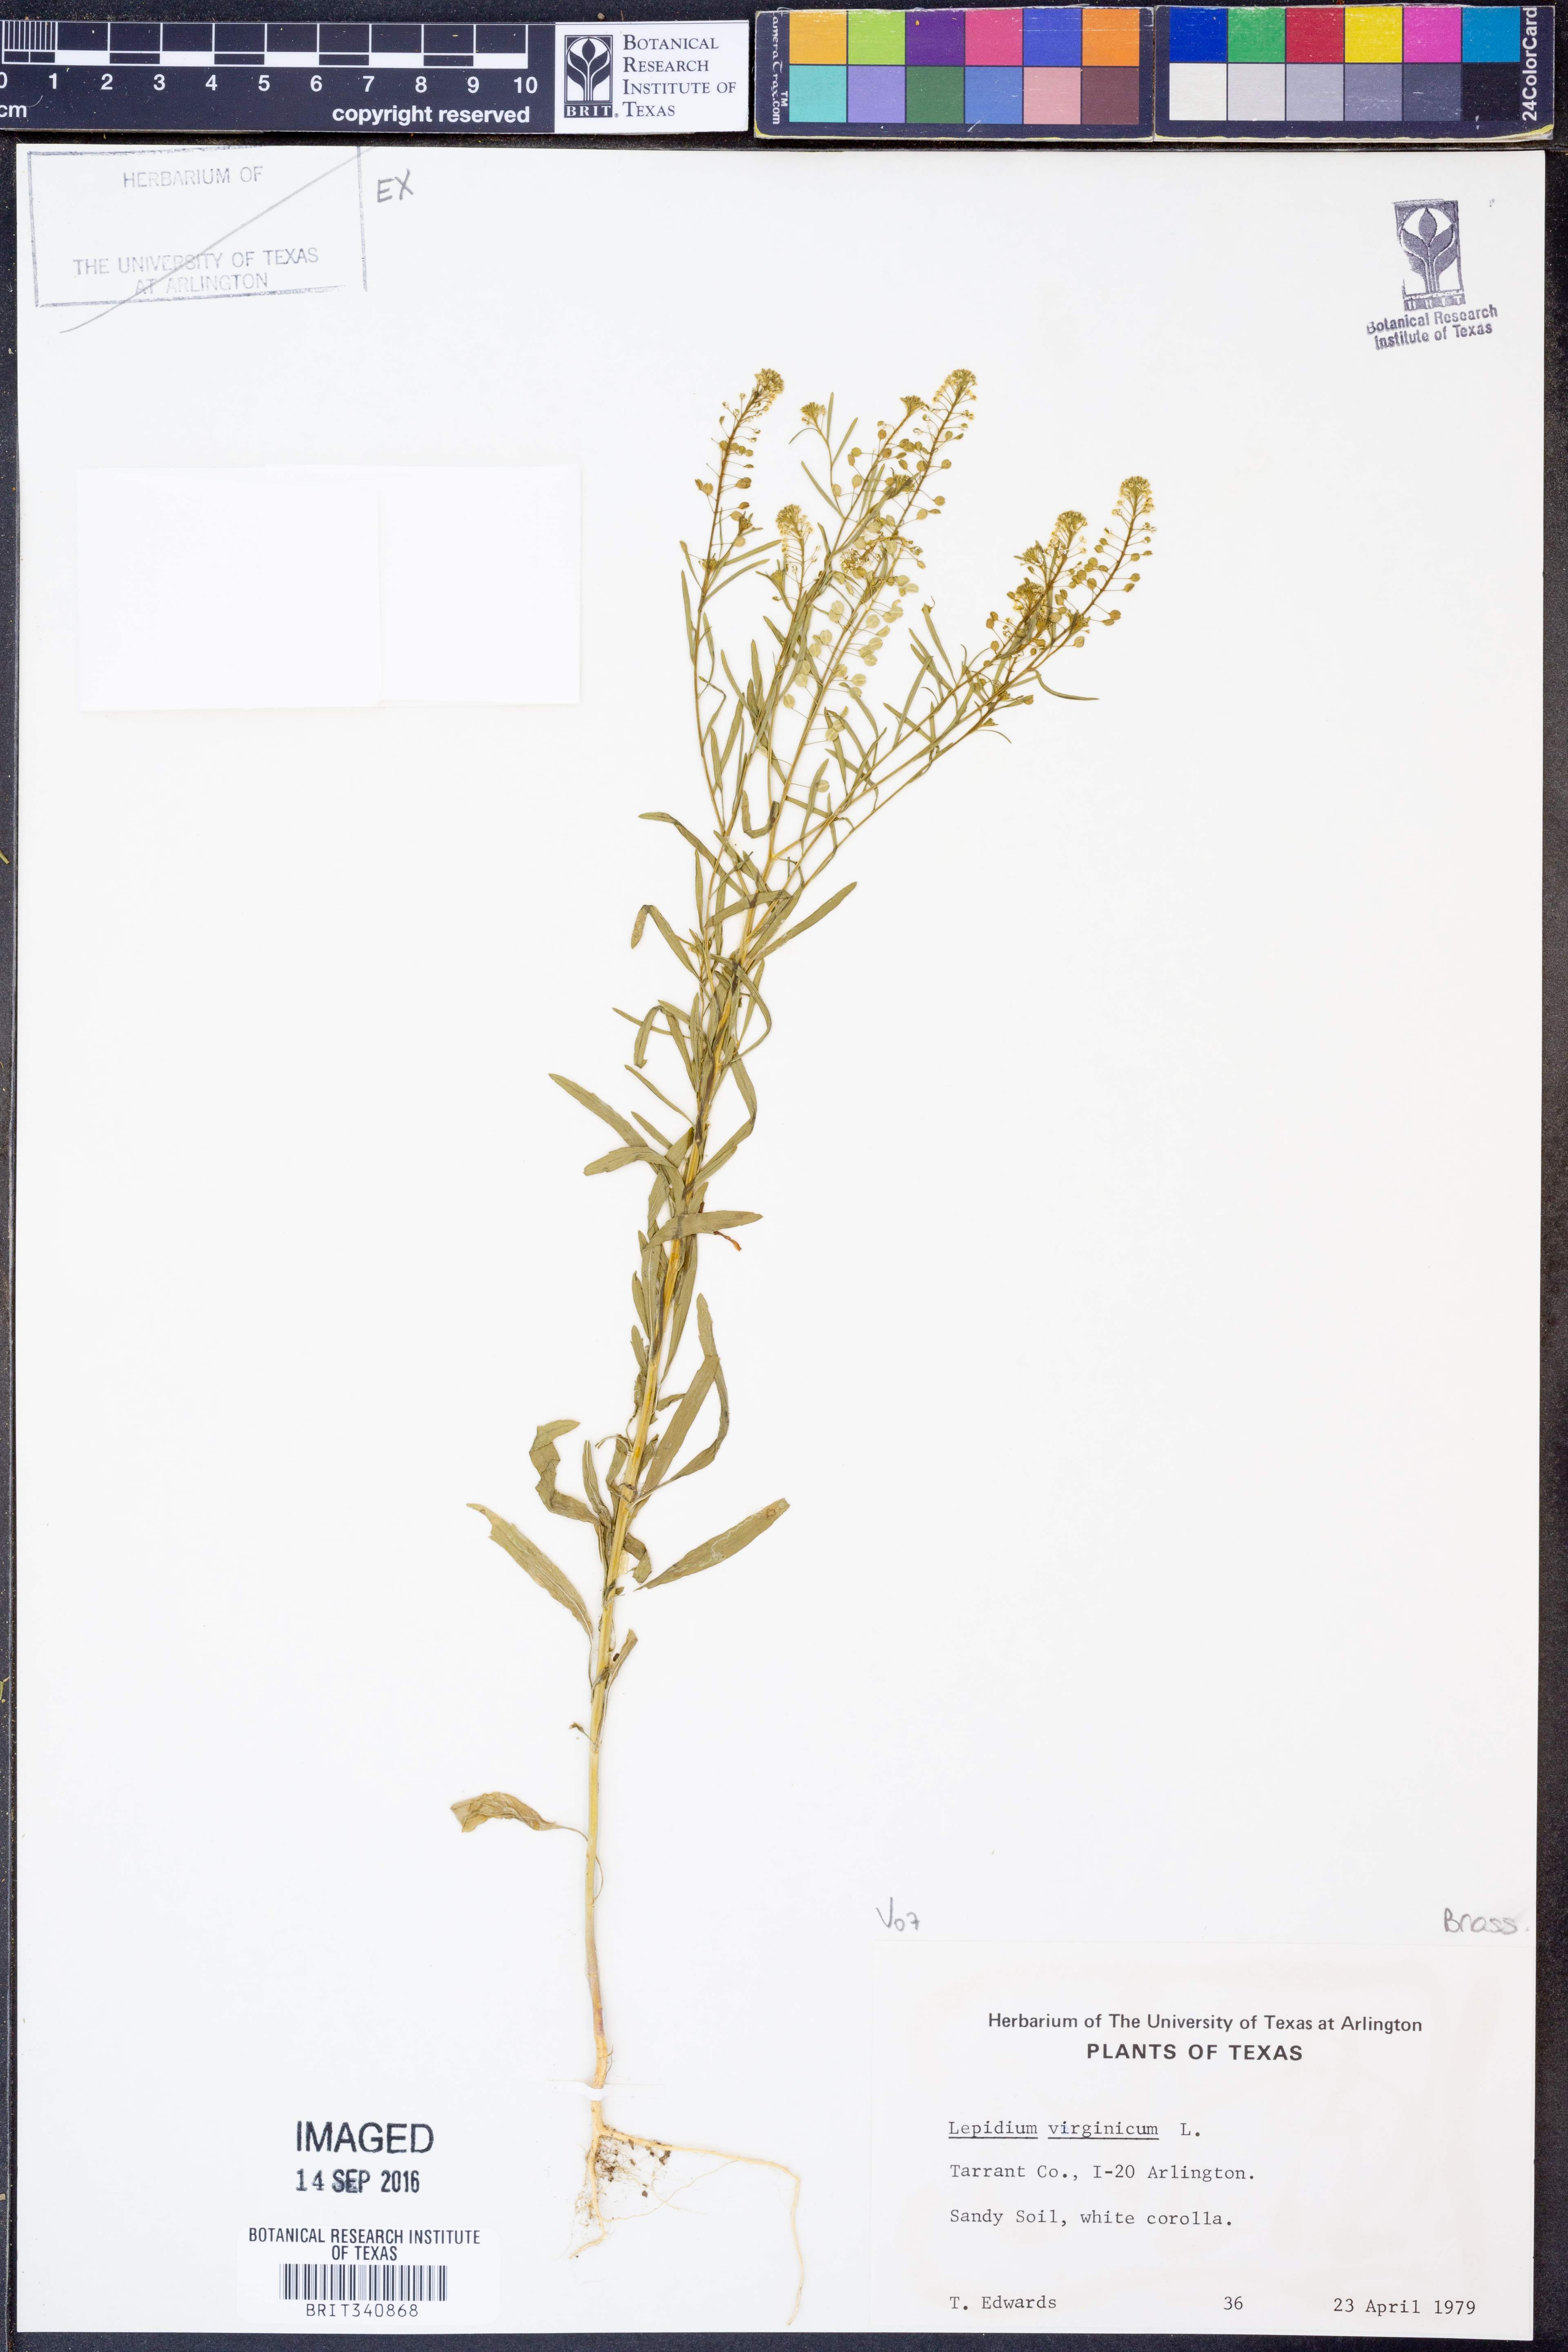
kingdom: Plantae
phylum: Tracheophyta
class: Magnoliopsida
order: Brassicales
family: Brassicaceae
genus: Lepidium
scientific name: Lepidium virginicum
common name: Least pepperwort
